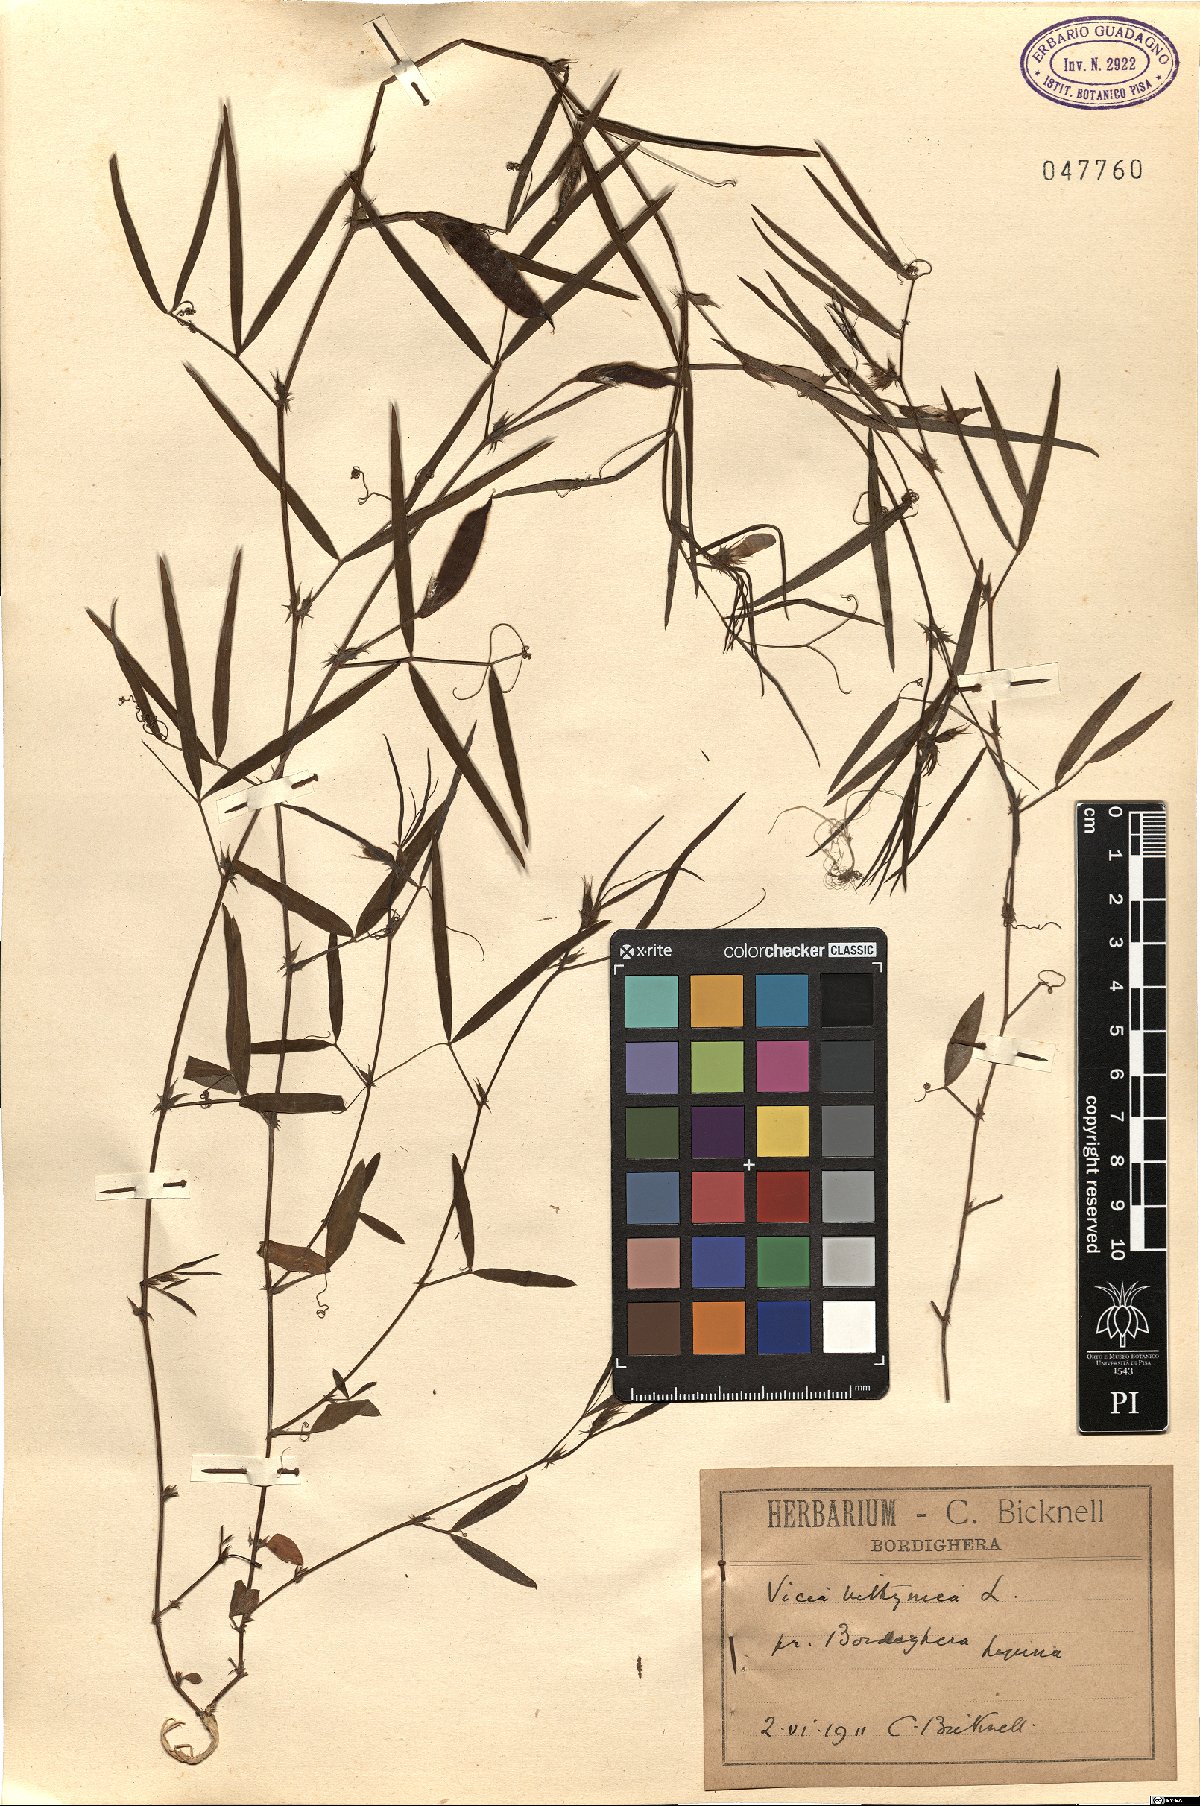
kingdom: Plantae
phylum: Tracheophyta
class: Magnoliopsida
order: Fabales
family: Fabaceae
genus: Vicia
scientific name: Vicia bithynica
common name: Bithynian vetch
